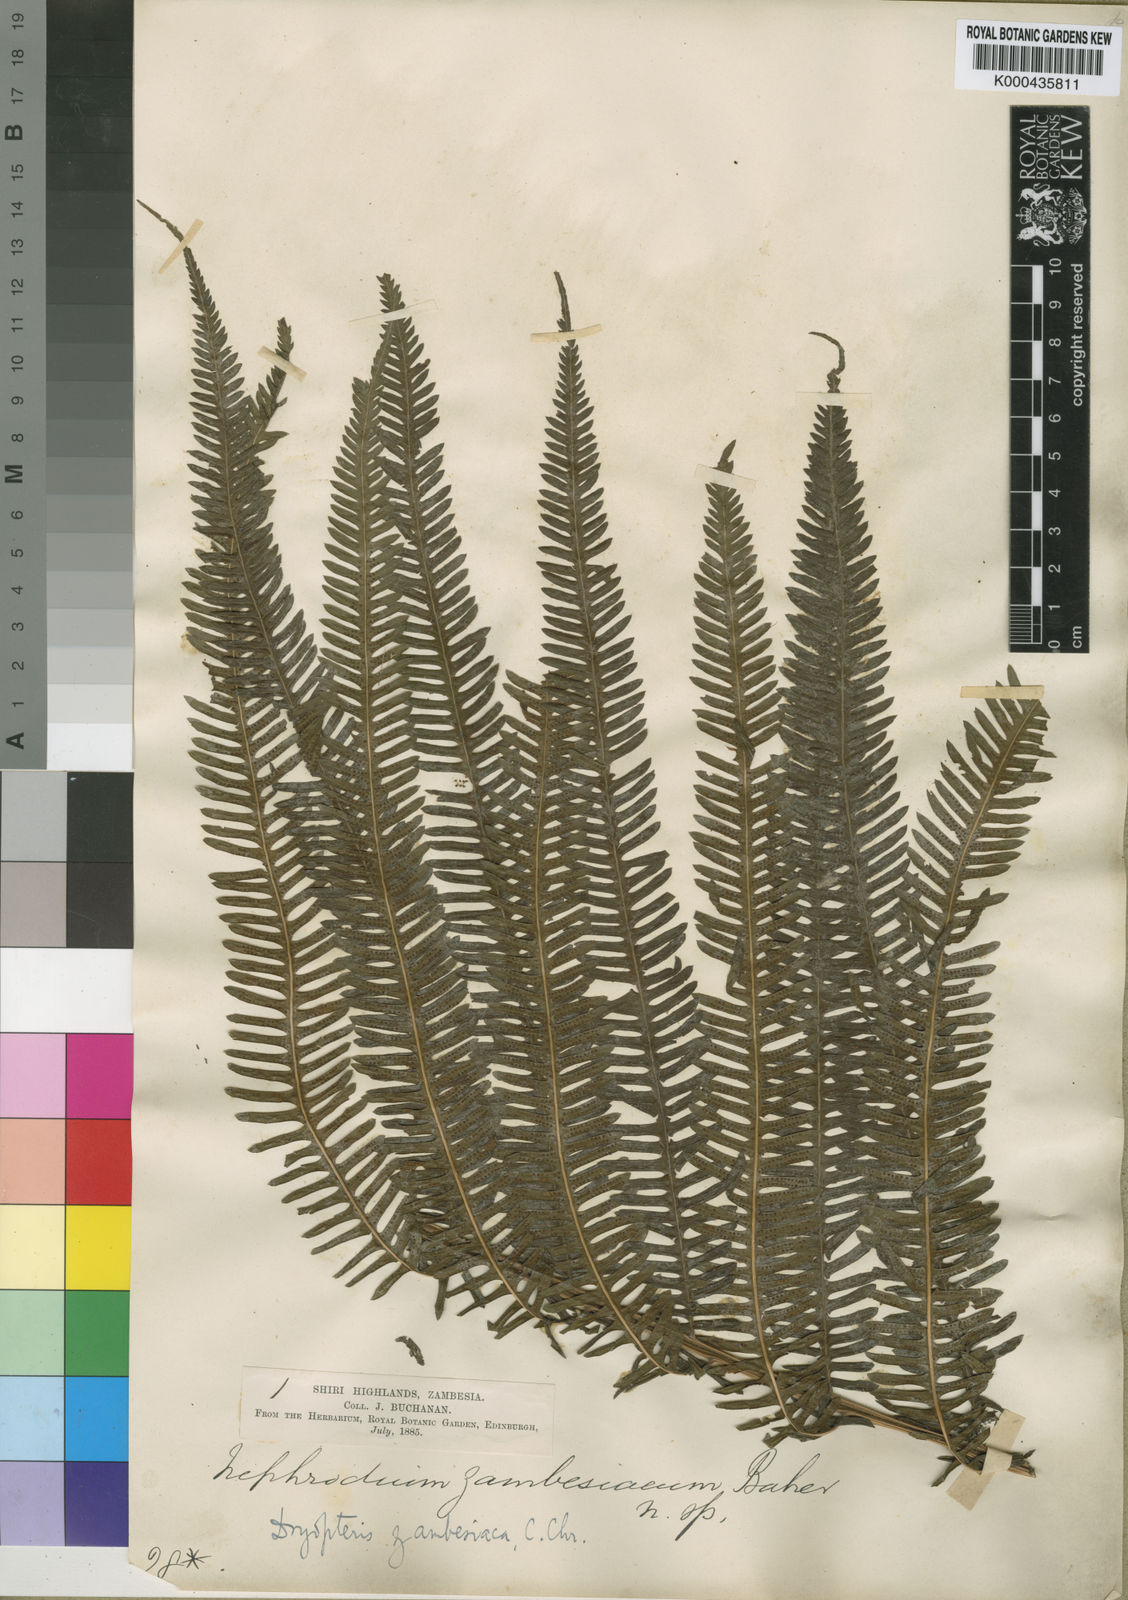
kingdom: Plantae
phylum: Tracheophyta
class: Polypodiopsida
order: Polypodiales
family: Thelypteridaceae
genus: Pseudocyclosorus
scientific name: Pseudocyclosorus johannae
